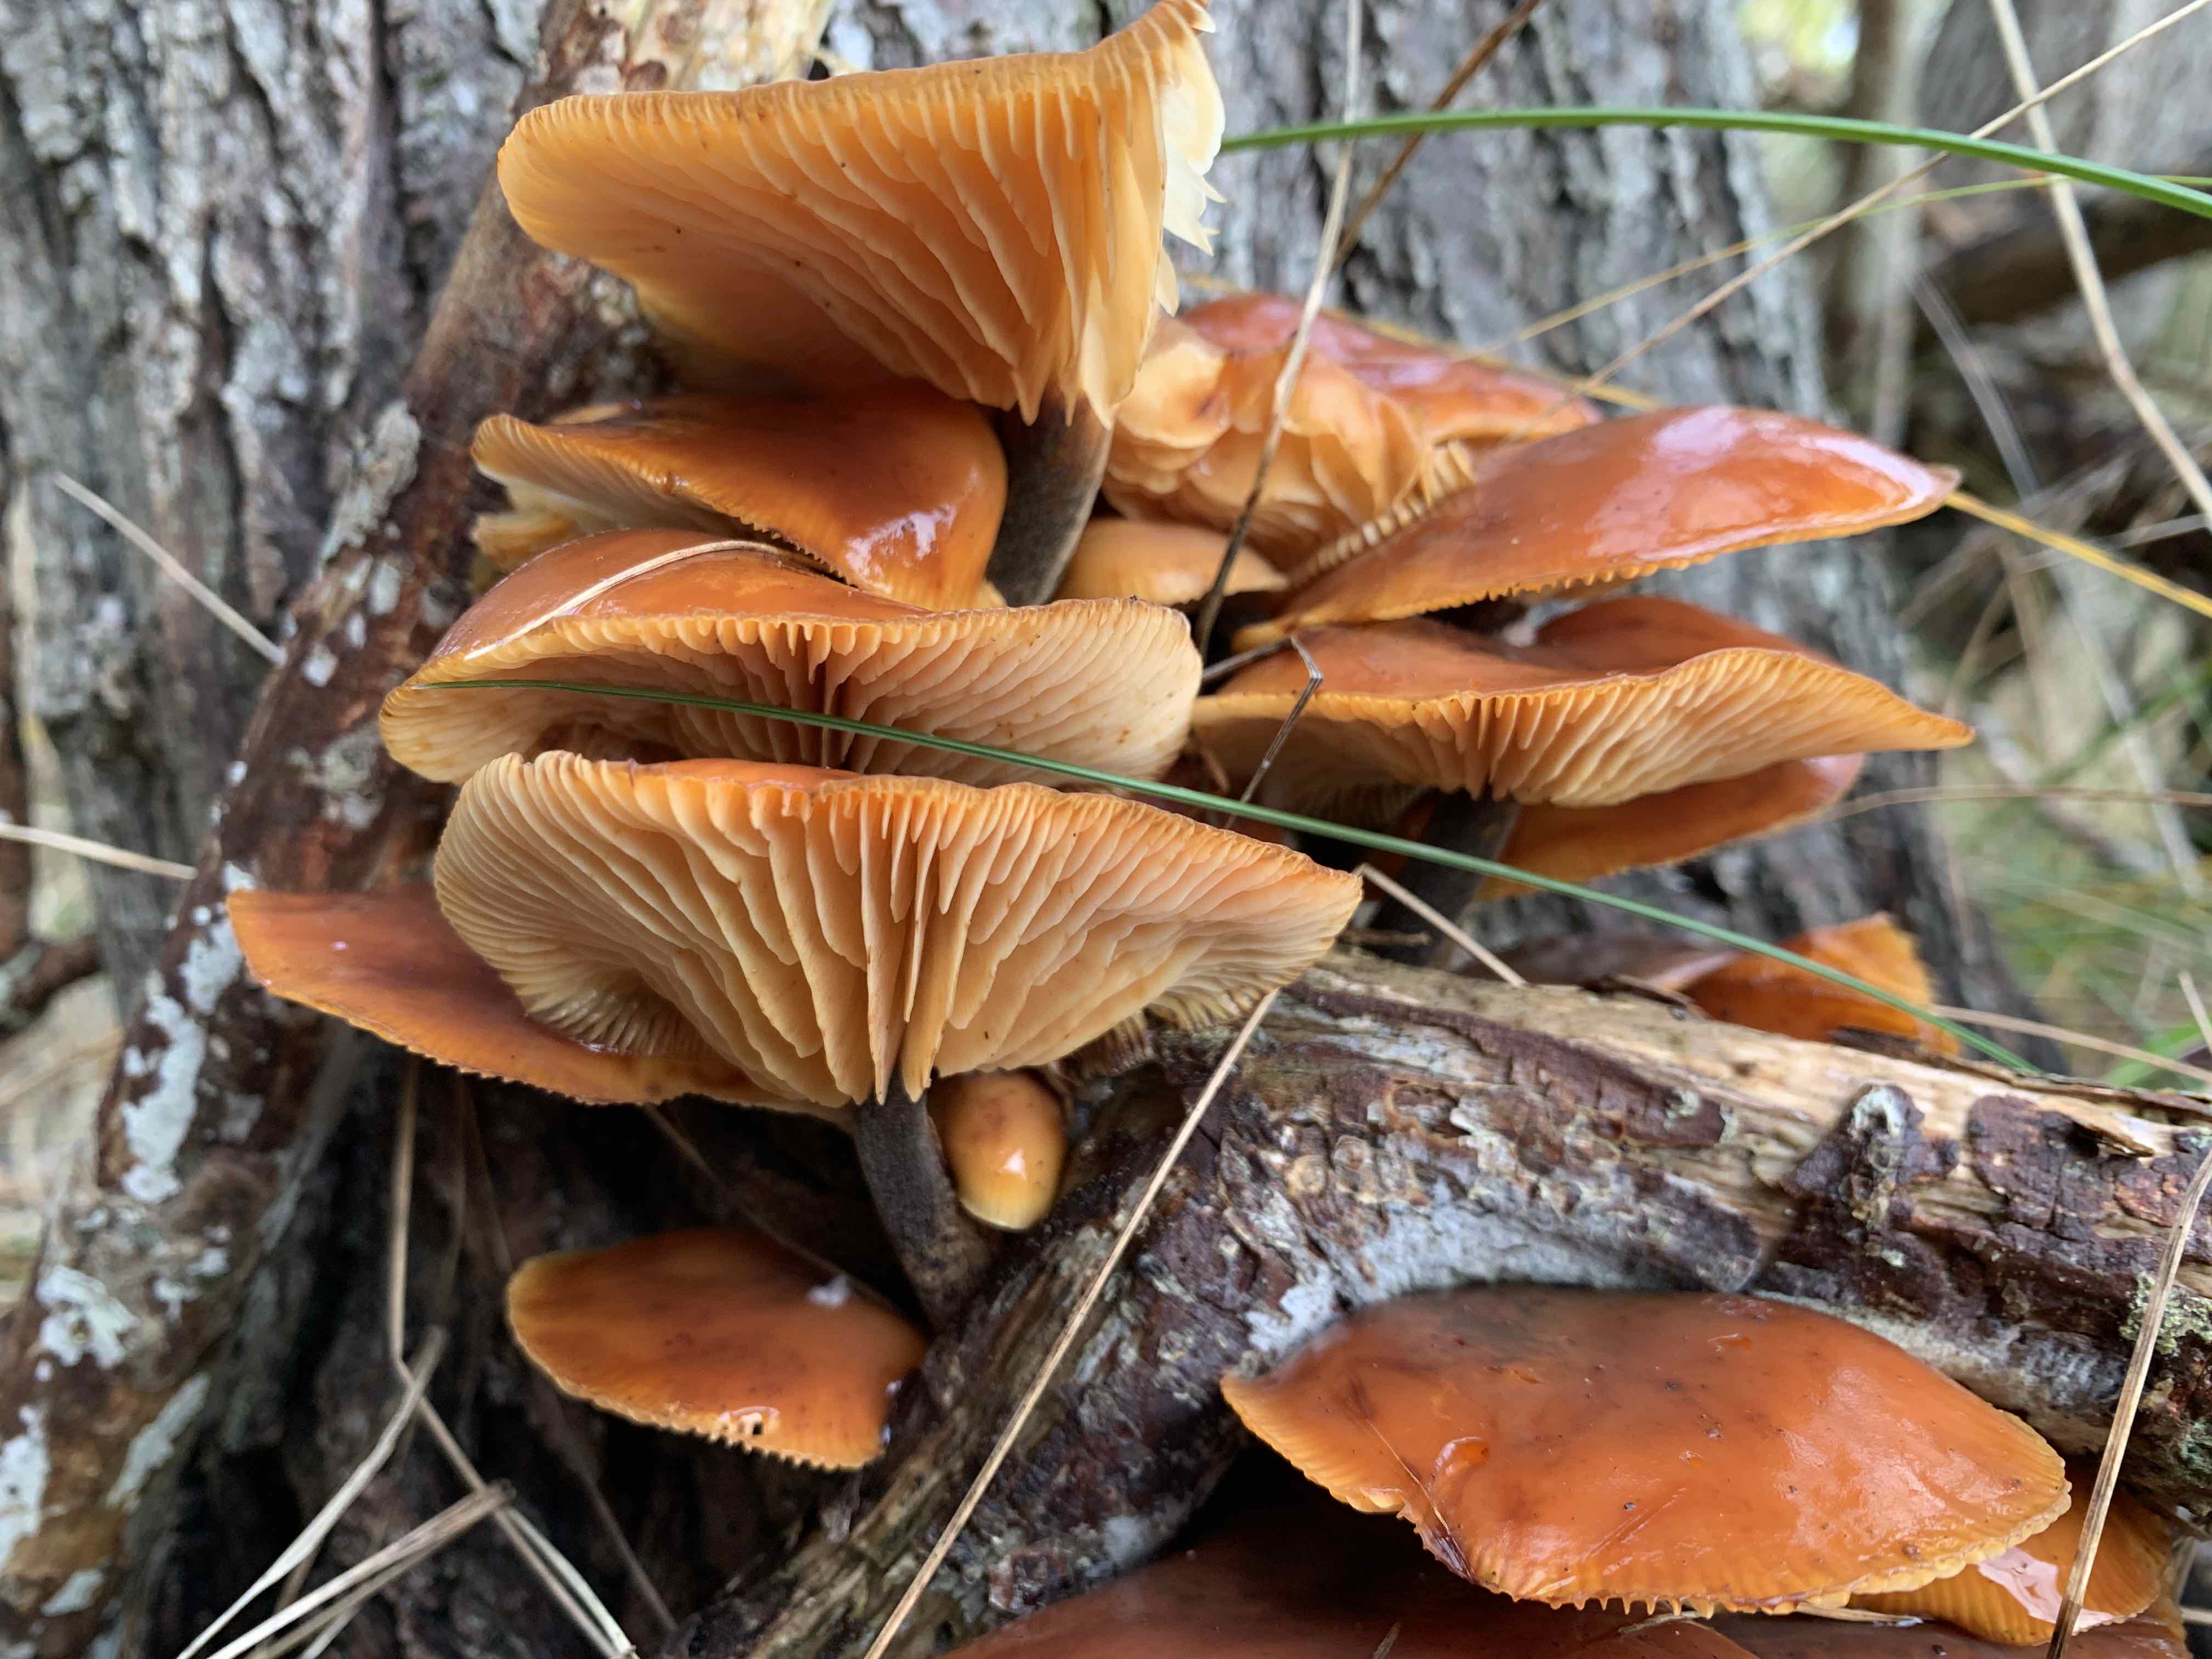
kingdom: Fungi
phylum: Basidiomycota
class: Agaricomycetes
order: Agaricales
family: Physalacriaceae
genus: Flammulina
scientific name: Flammulina
